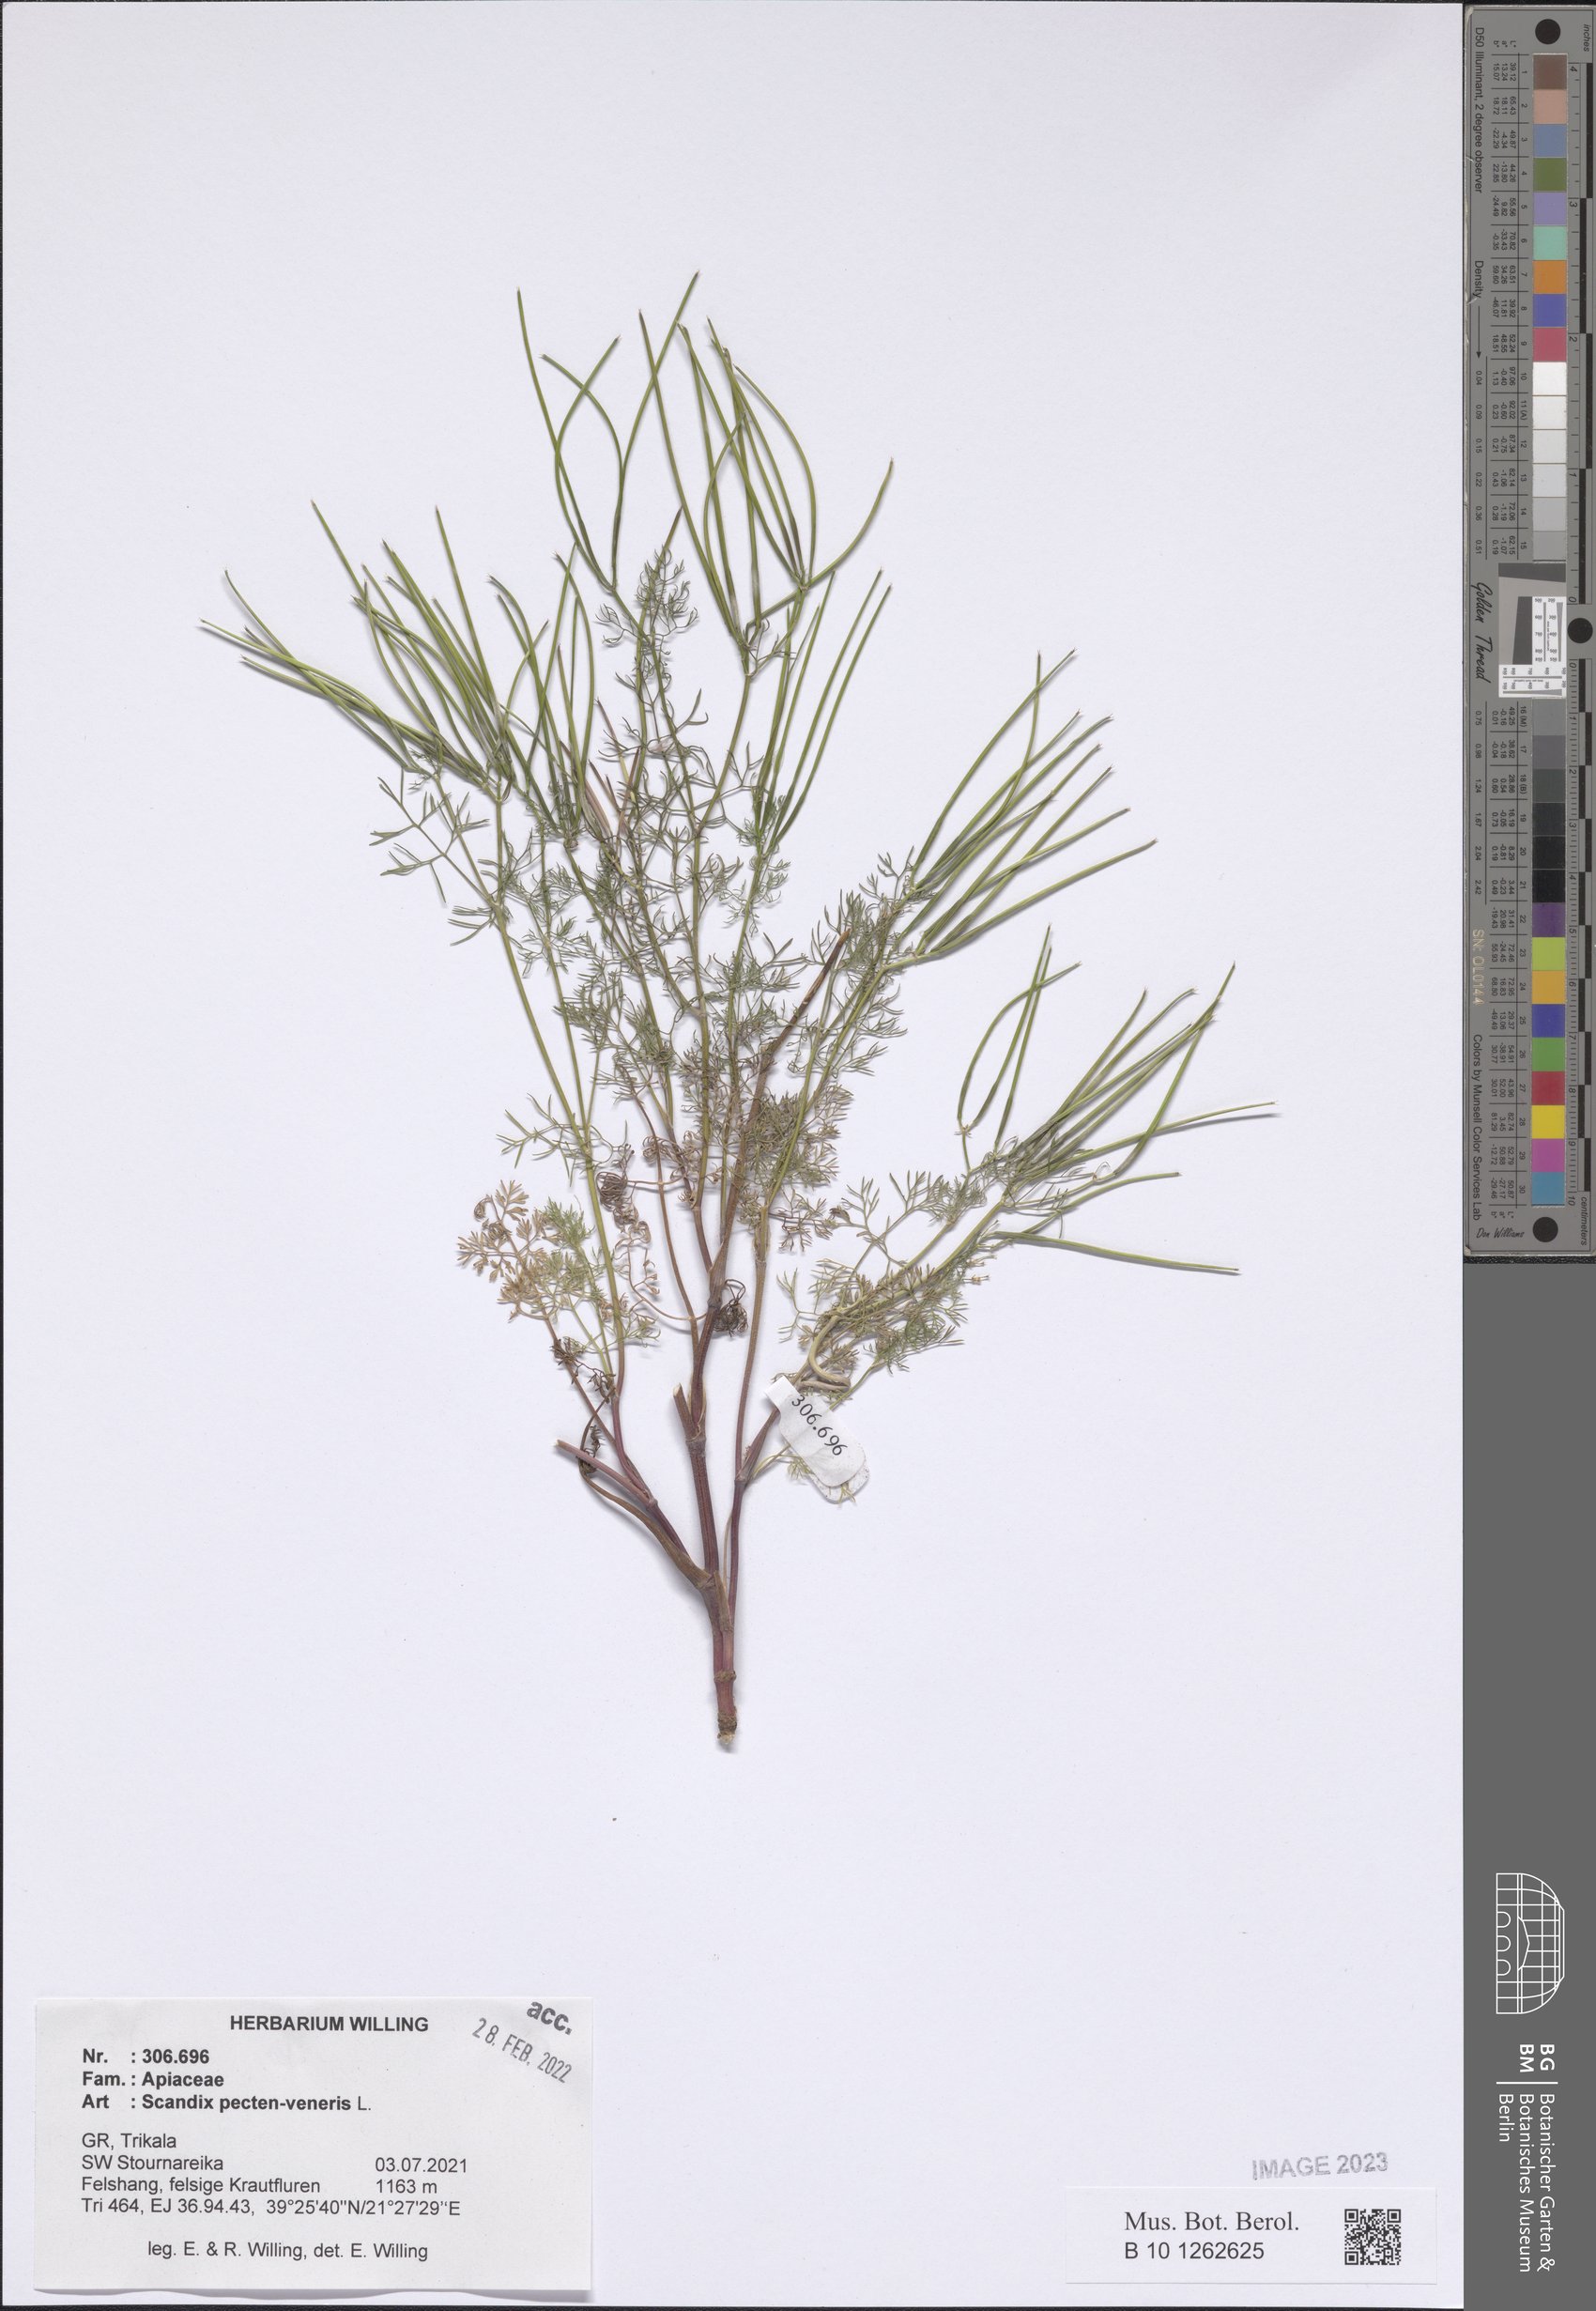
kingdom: Plantae
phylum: Tracheophyta
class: Magnoliopsida
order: Apiales
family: Apiaceae
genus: Scandix
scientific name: Scandix pecten-veneris
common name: Shepherd's-needle
